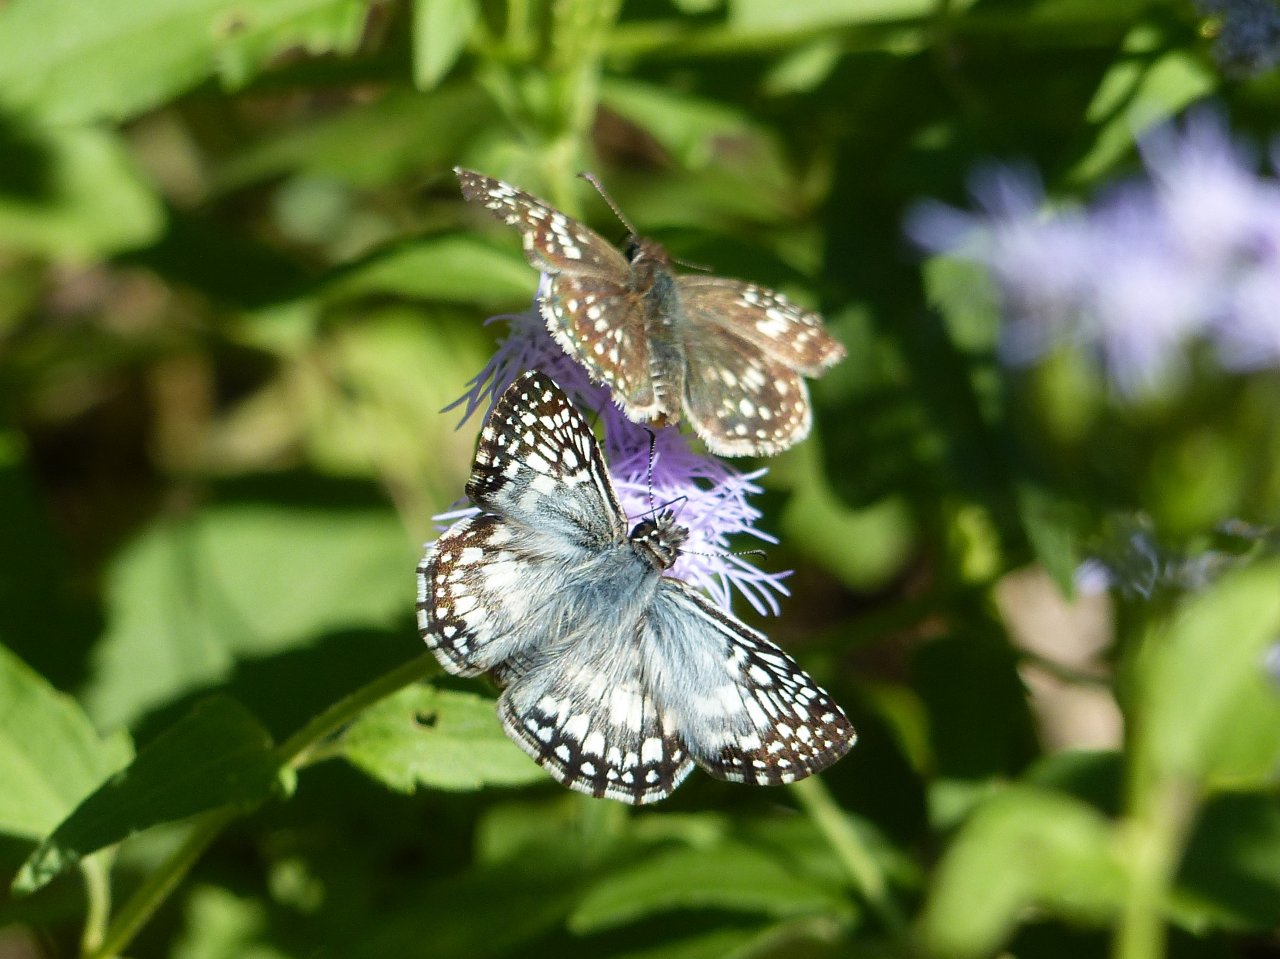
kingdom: Animalia
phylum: Arthropoda
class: Insecta
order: Lepidoptera
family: Hesperiidae
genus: Pyrgus
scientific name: Pyrgus oileus
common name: Tropical Checkered-Skipper
